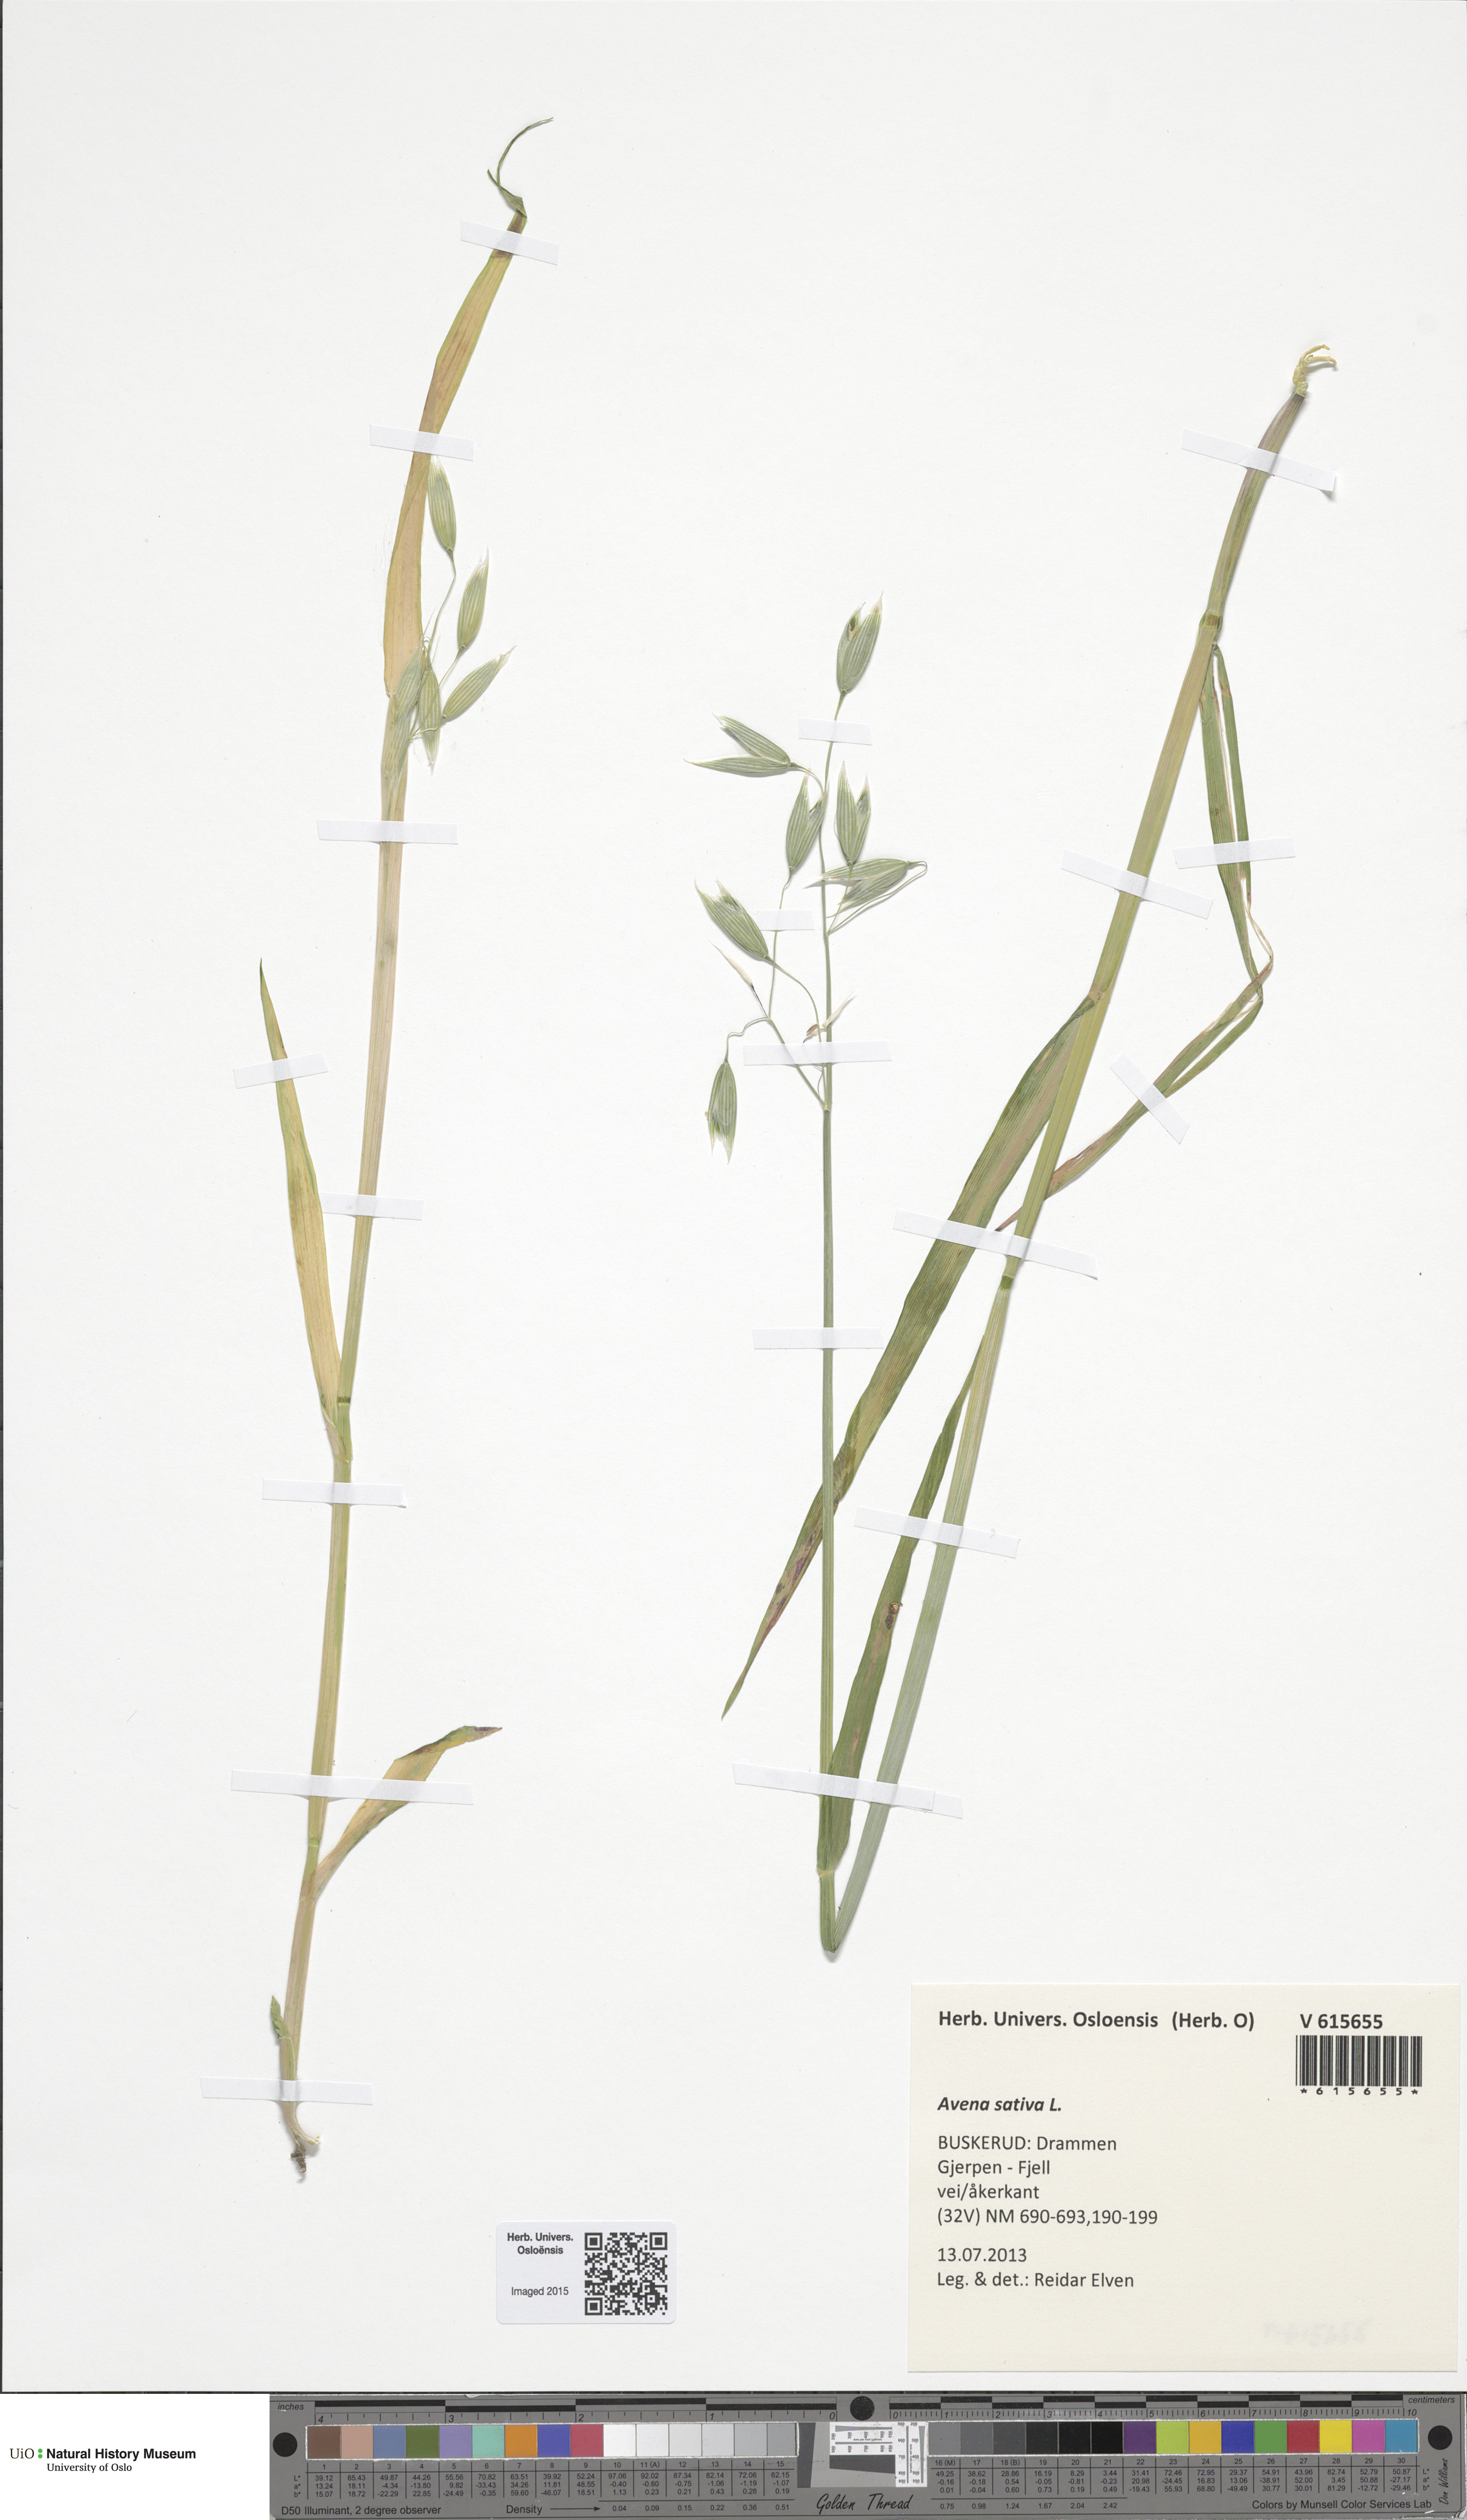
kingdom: Plantae
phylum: Tracheophyta
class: Liliopsida
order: Poales
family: Poaceae
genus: Avena
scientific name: Avena sativa
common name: Oat
